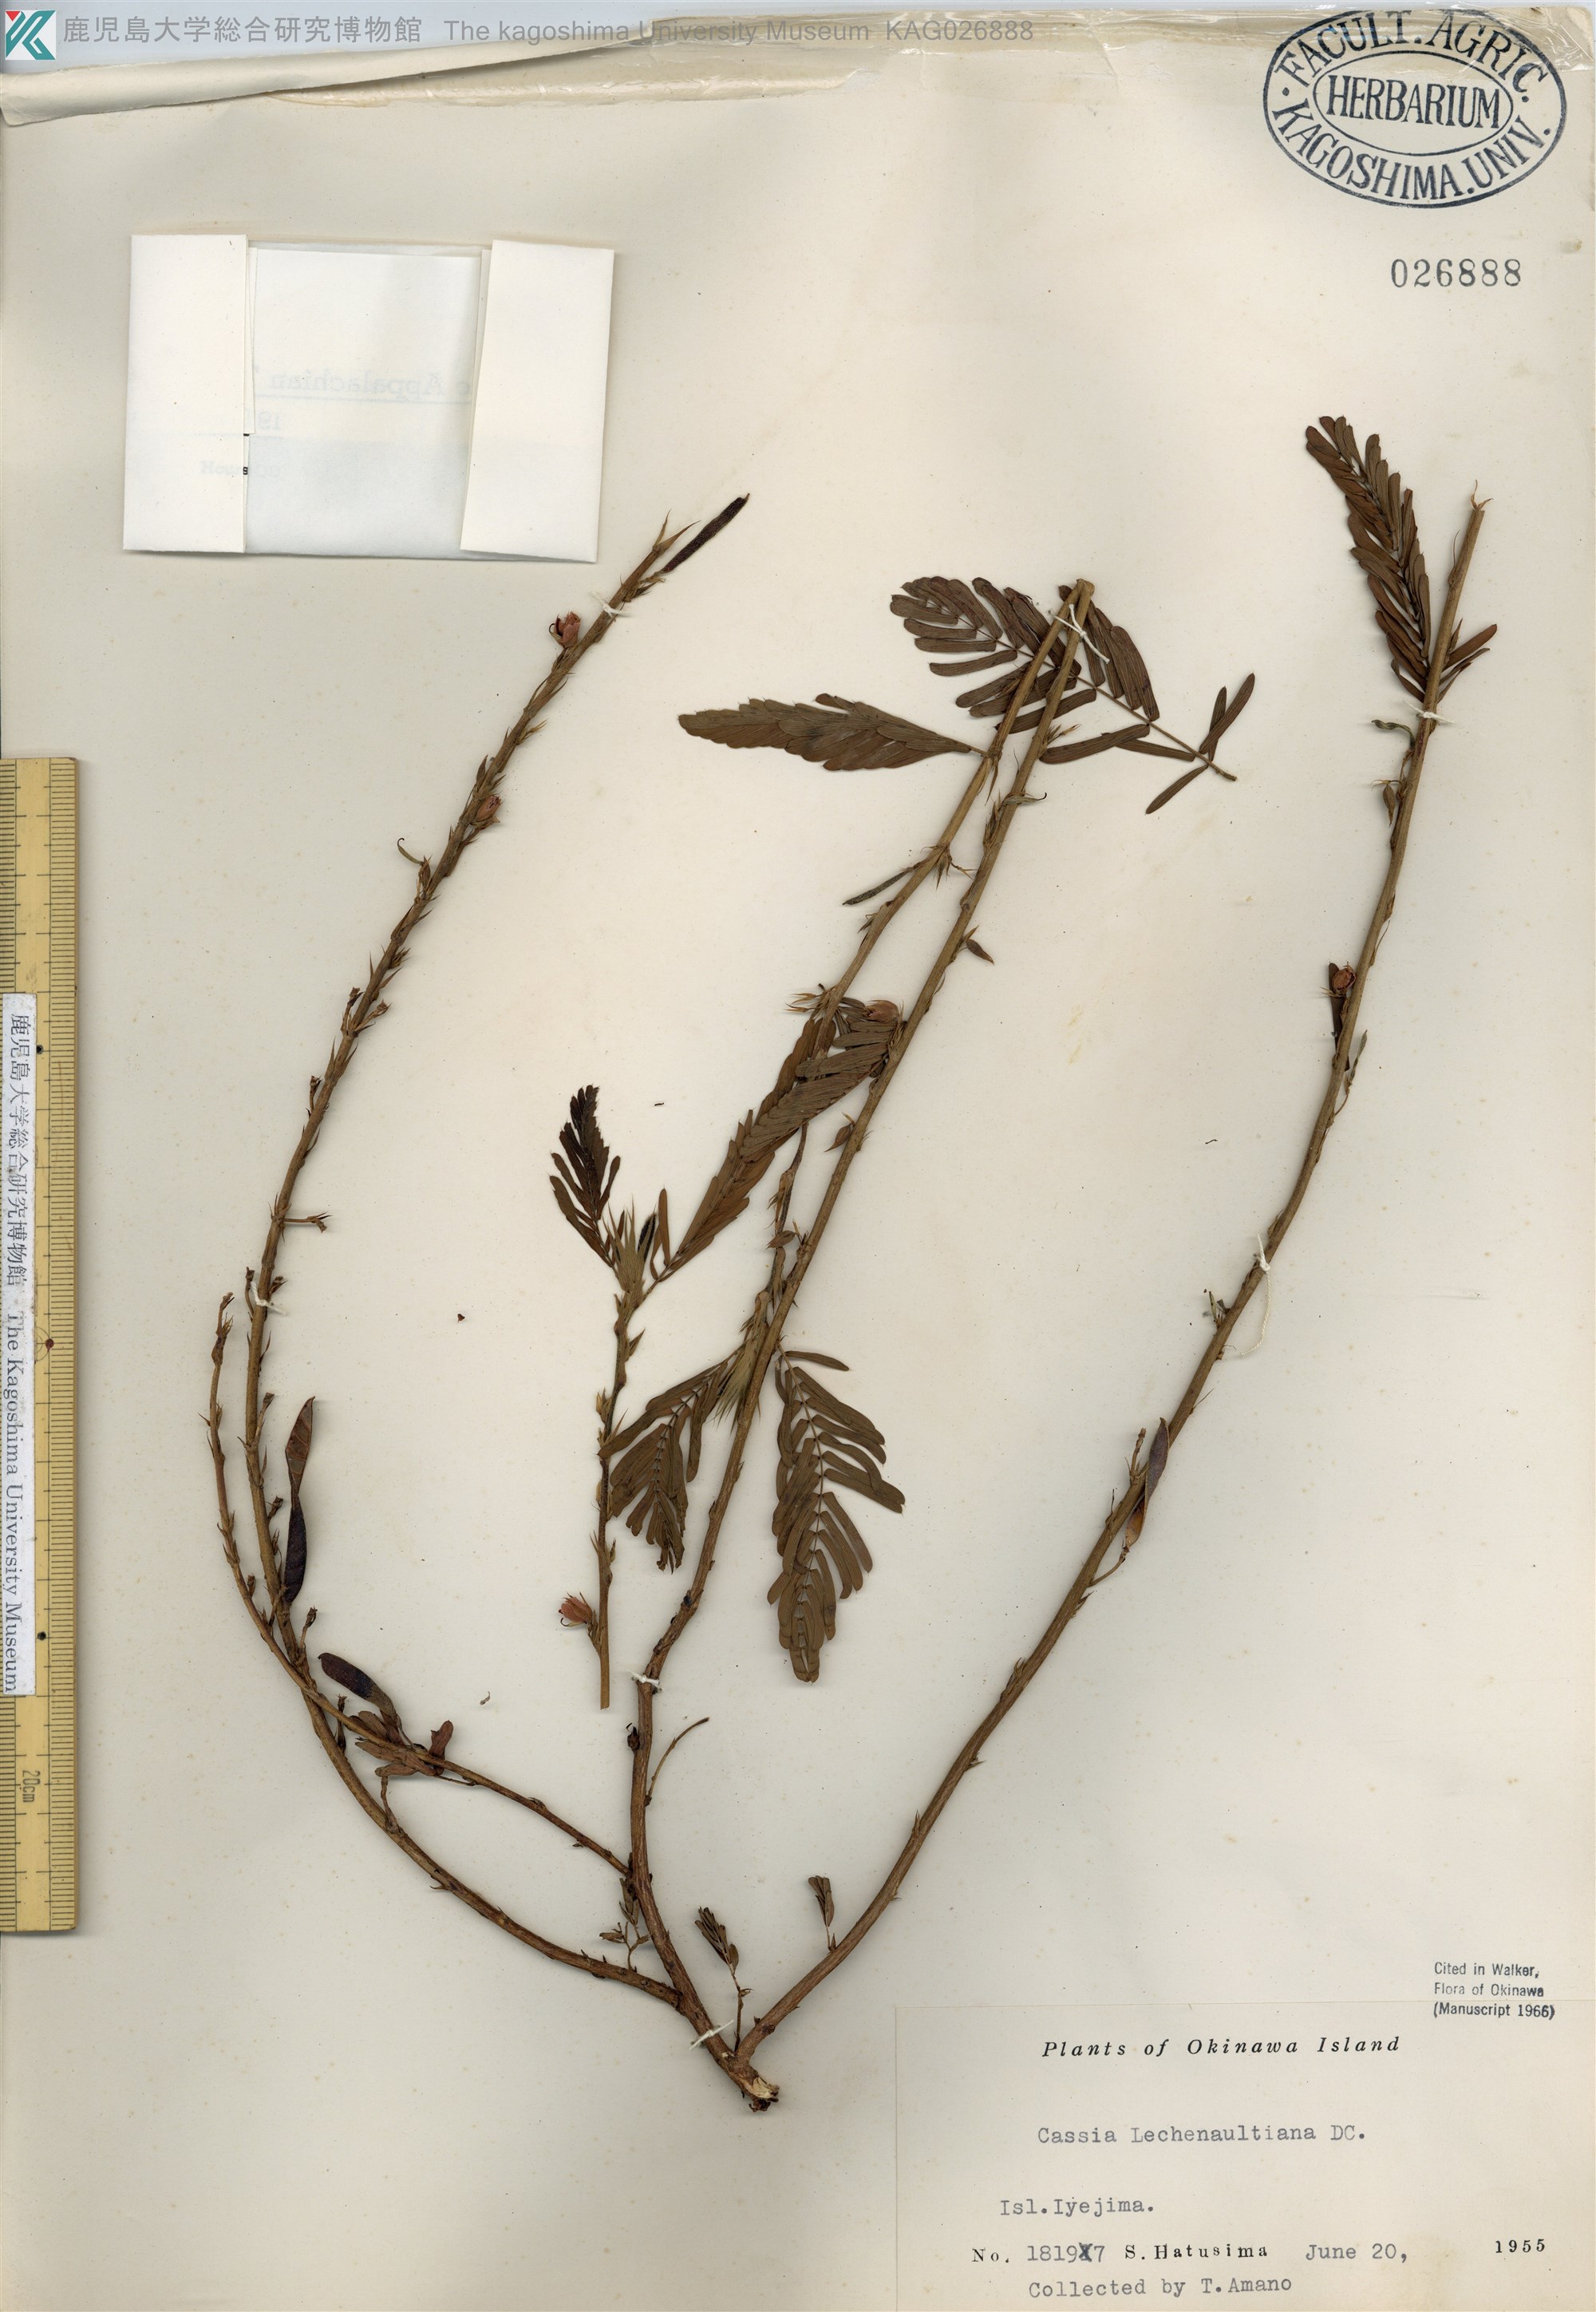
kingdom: Plantae
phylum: Tracheophyta
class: Magnoliopsida
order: Fabales
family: Fabaceae
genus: Chamaecrista
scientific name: Chamaecrista leschenaultiana
